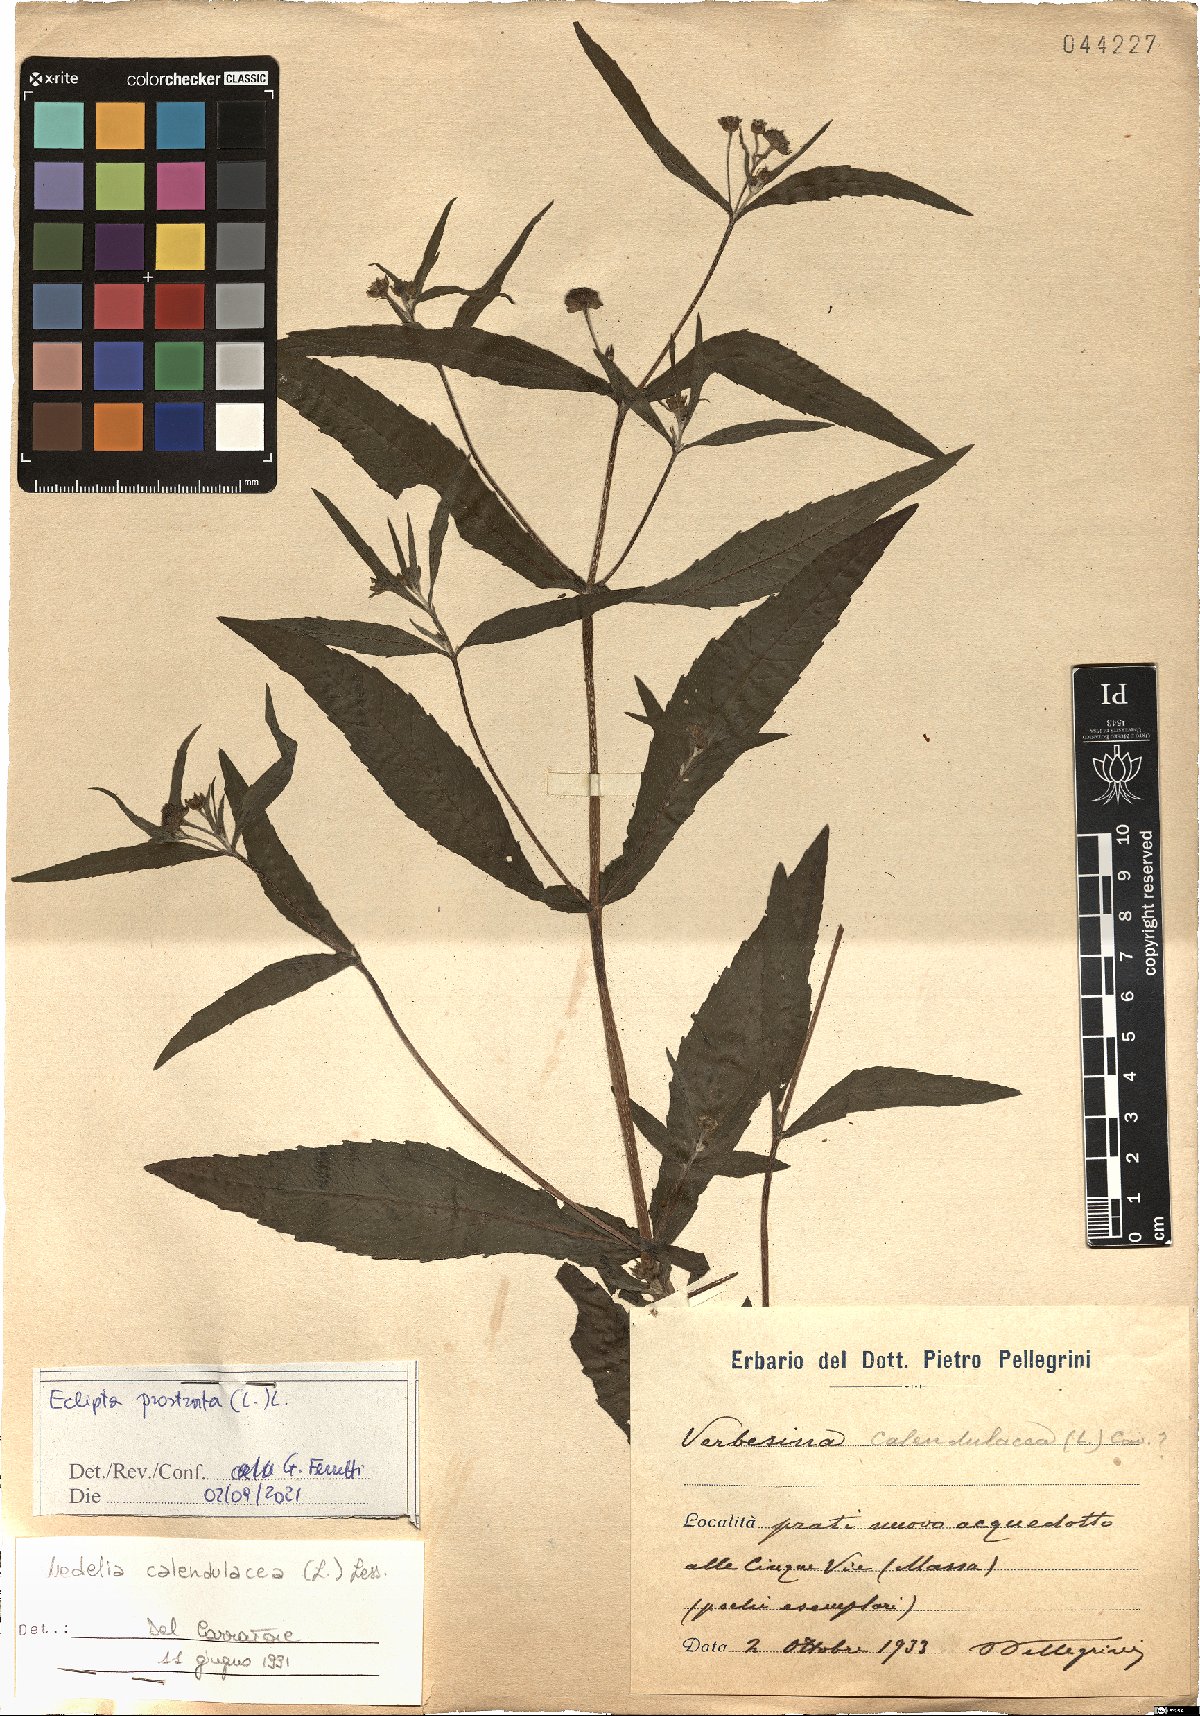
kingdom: Plantae
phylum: Tracheophyta
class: Magnoliopsida
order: Asterales
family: Asteraceae
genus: Eclipta
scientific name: Eclipta prostrata
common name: False daisy
